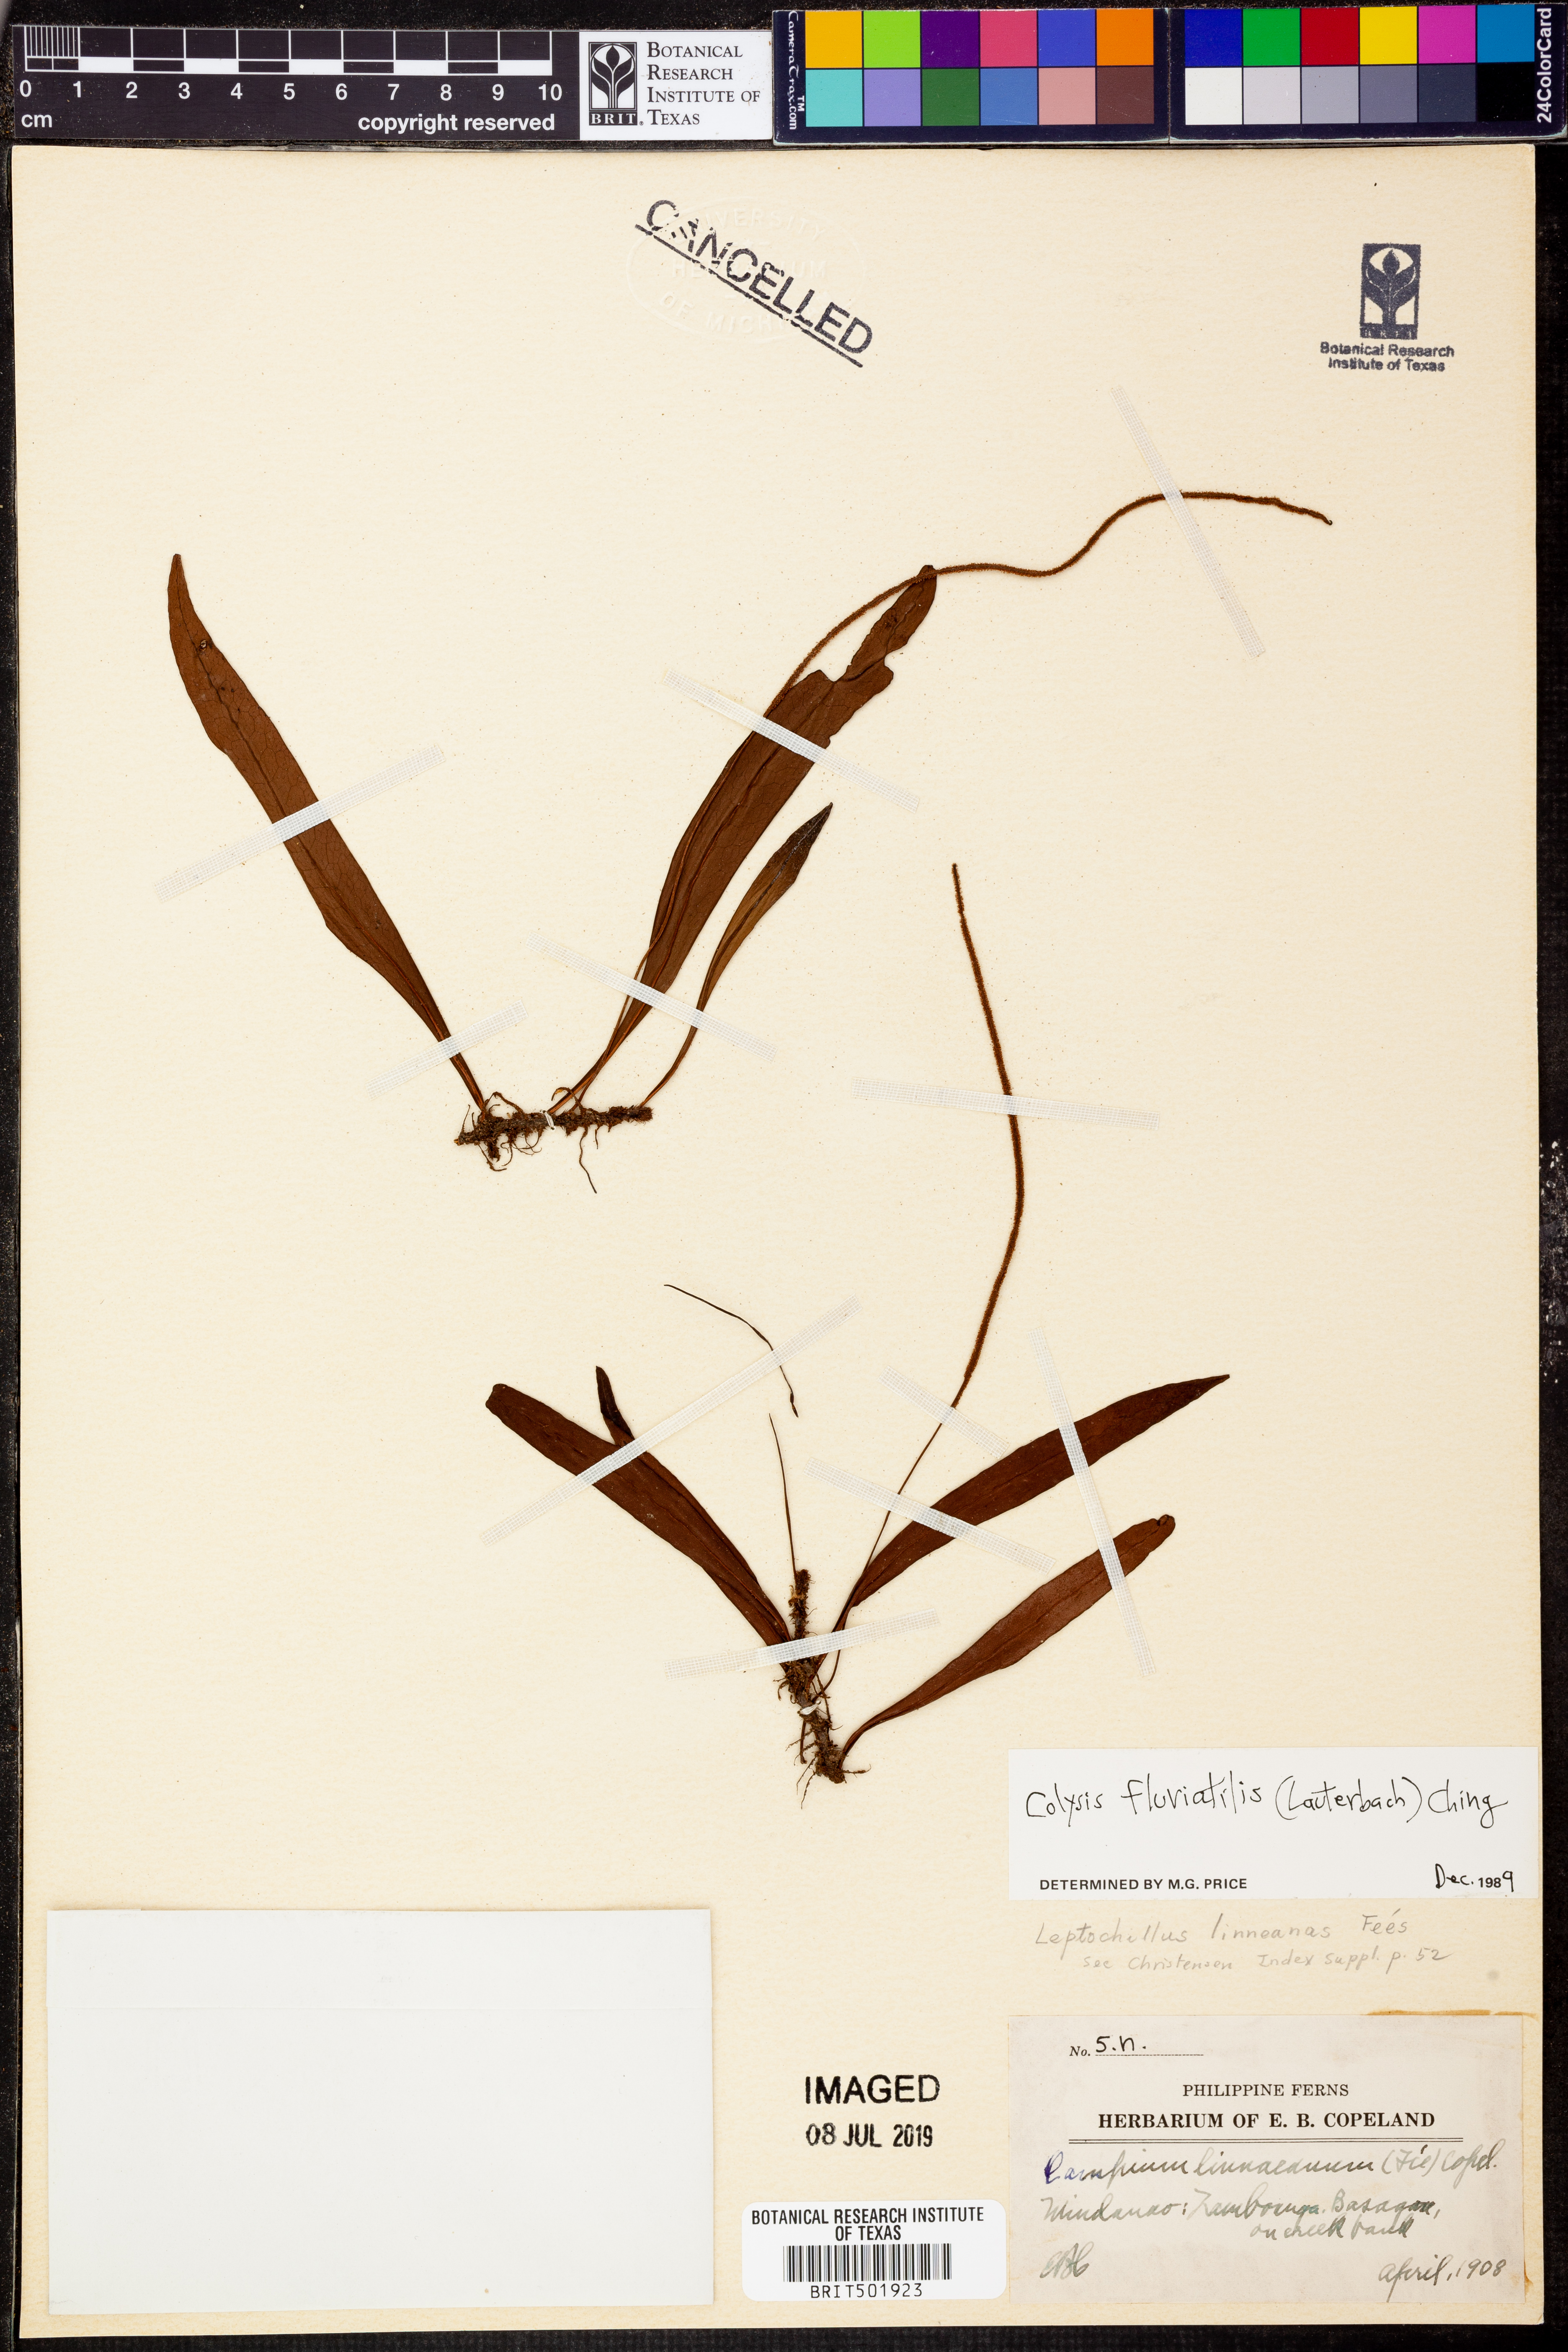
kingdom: Plantae
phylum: Tracheophyta
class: Polypodiopsida
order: Polypodiales
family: Polypodiaceae
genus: Leptochilus
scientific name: Leptochilus sarawakensis
